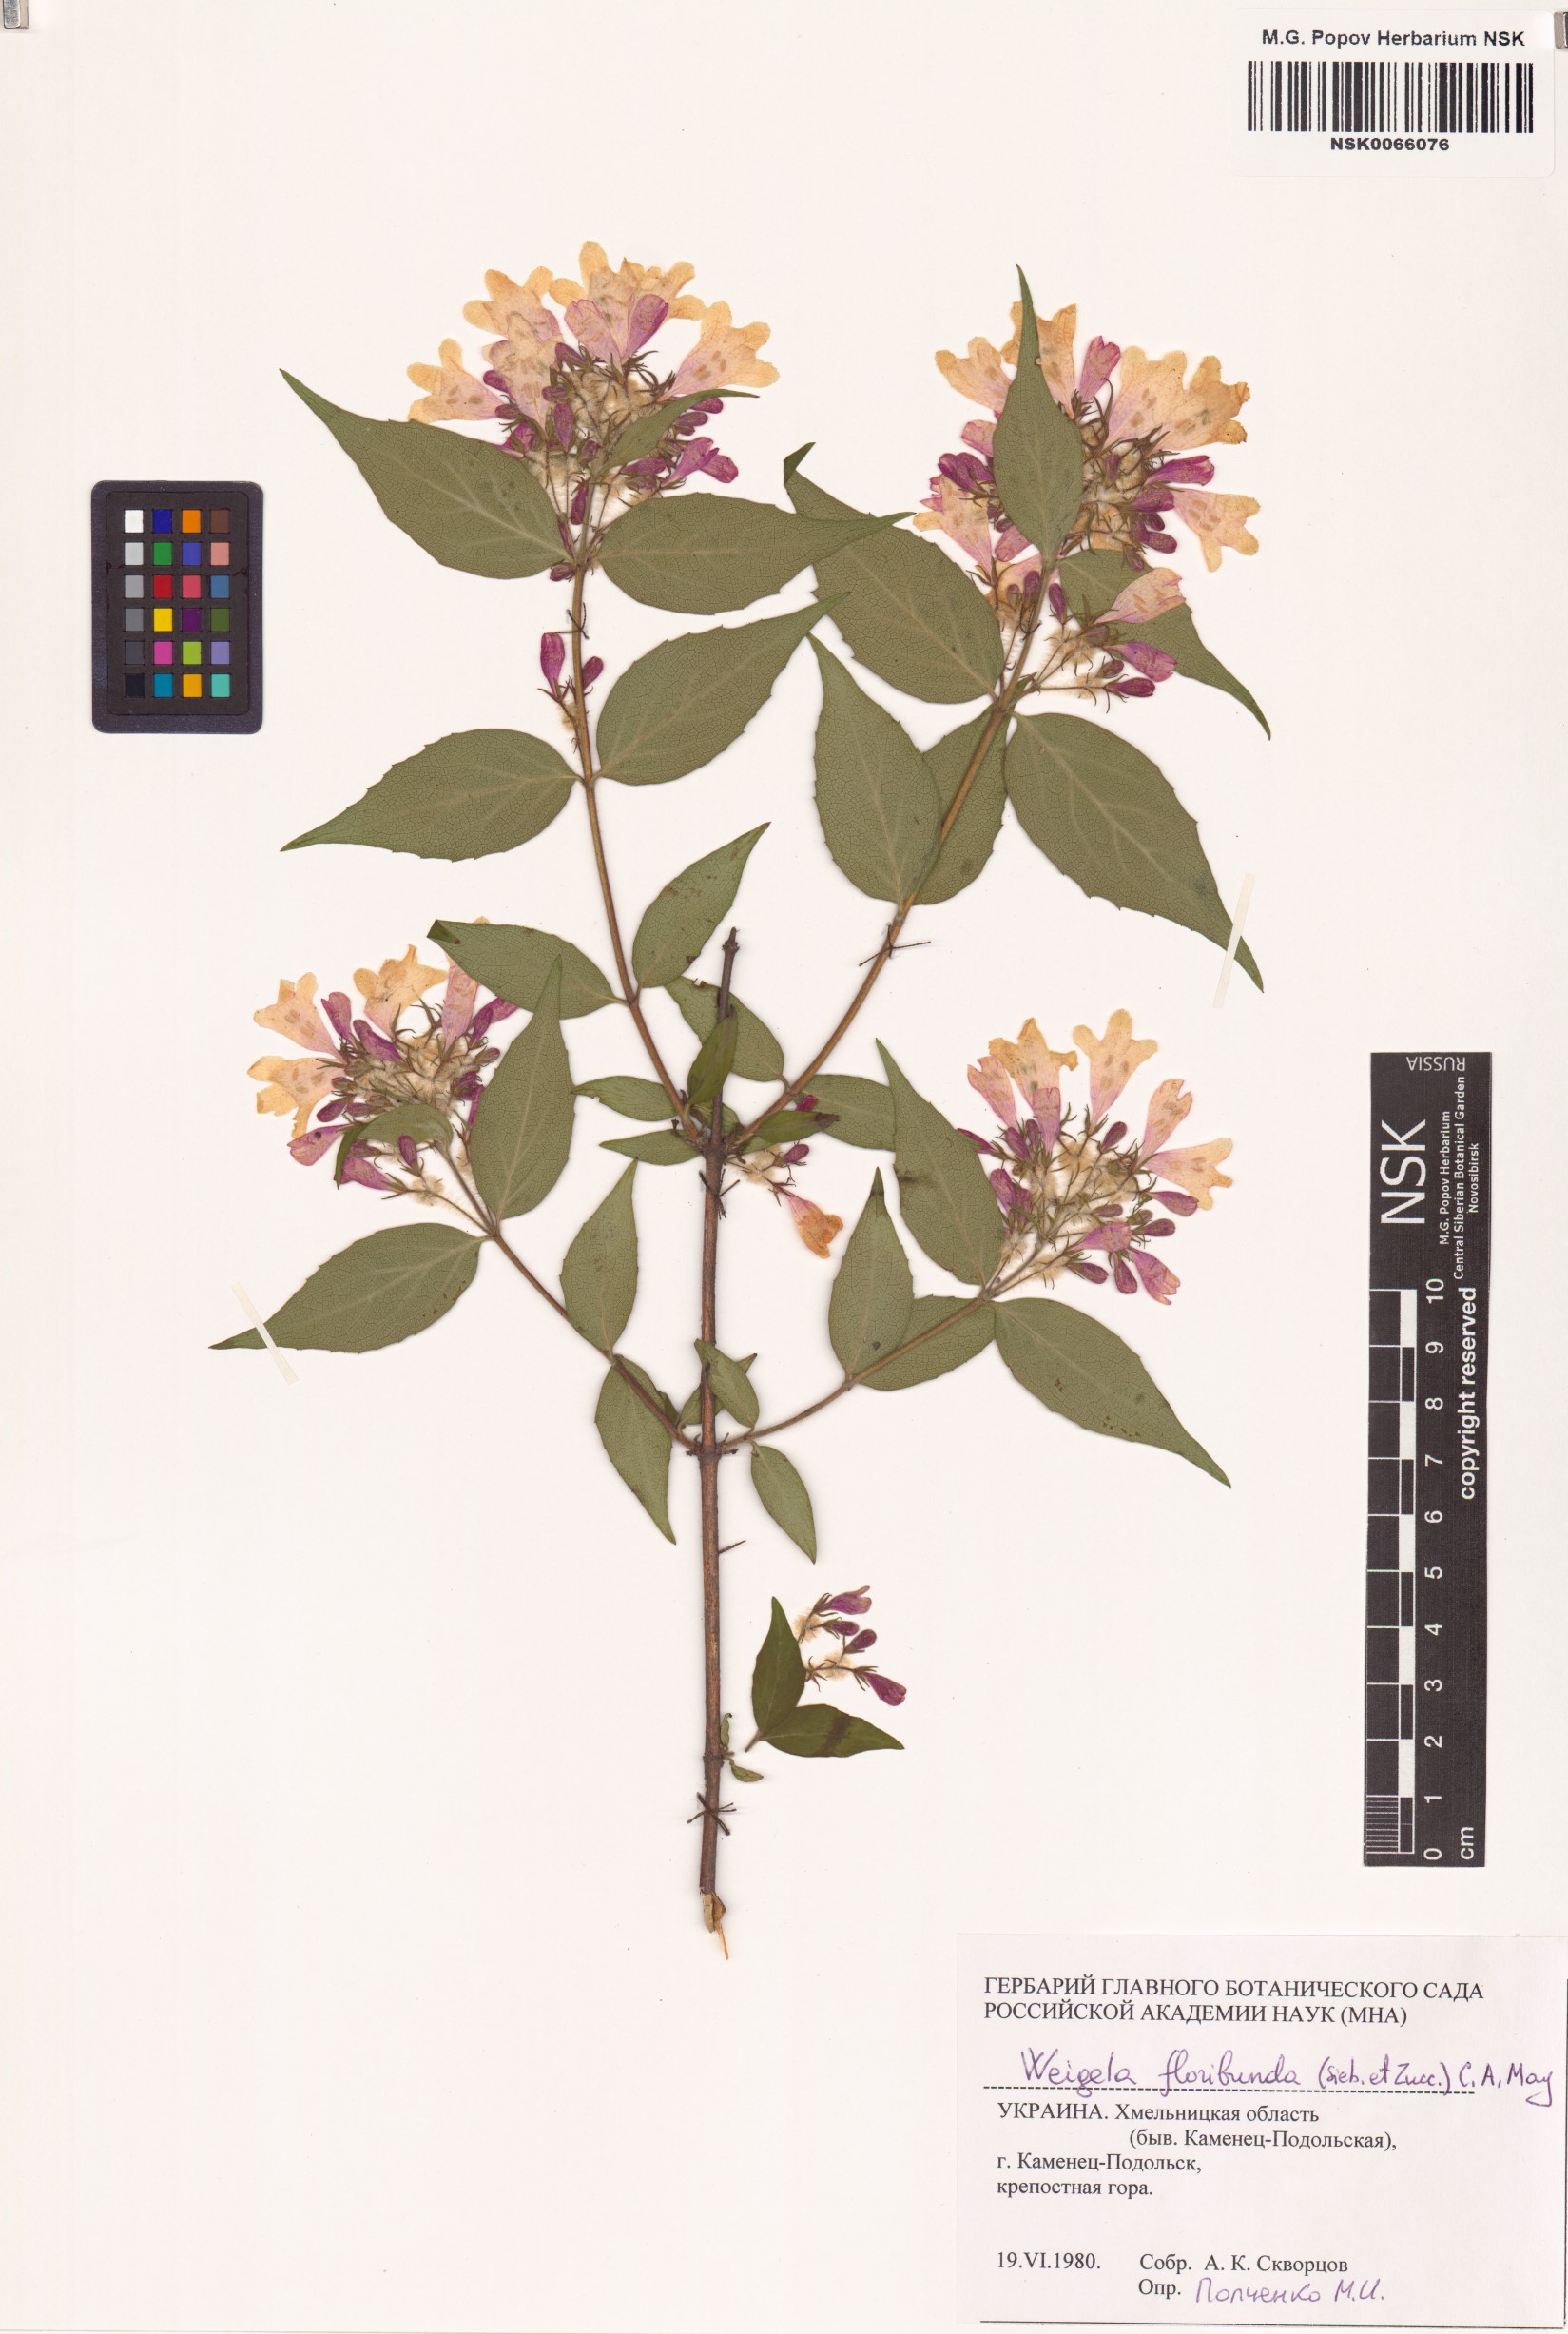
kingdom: Plantae
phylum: Tracheophyta
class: Magnoliopsida
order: Dipsacales
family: Caprifoliaceae
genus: Weigela
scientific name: Weigela floribunda
